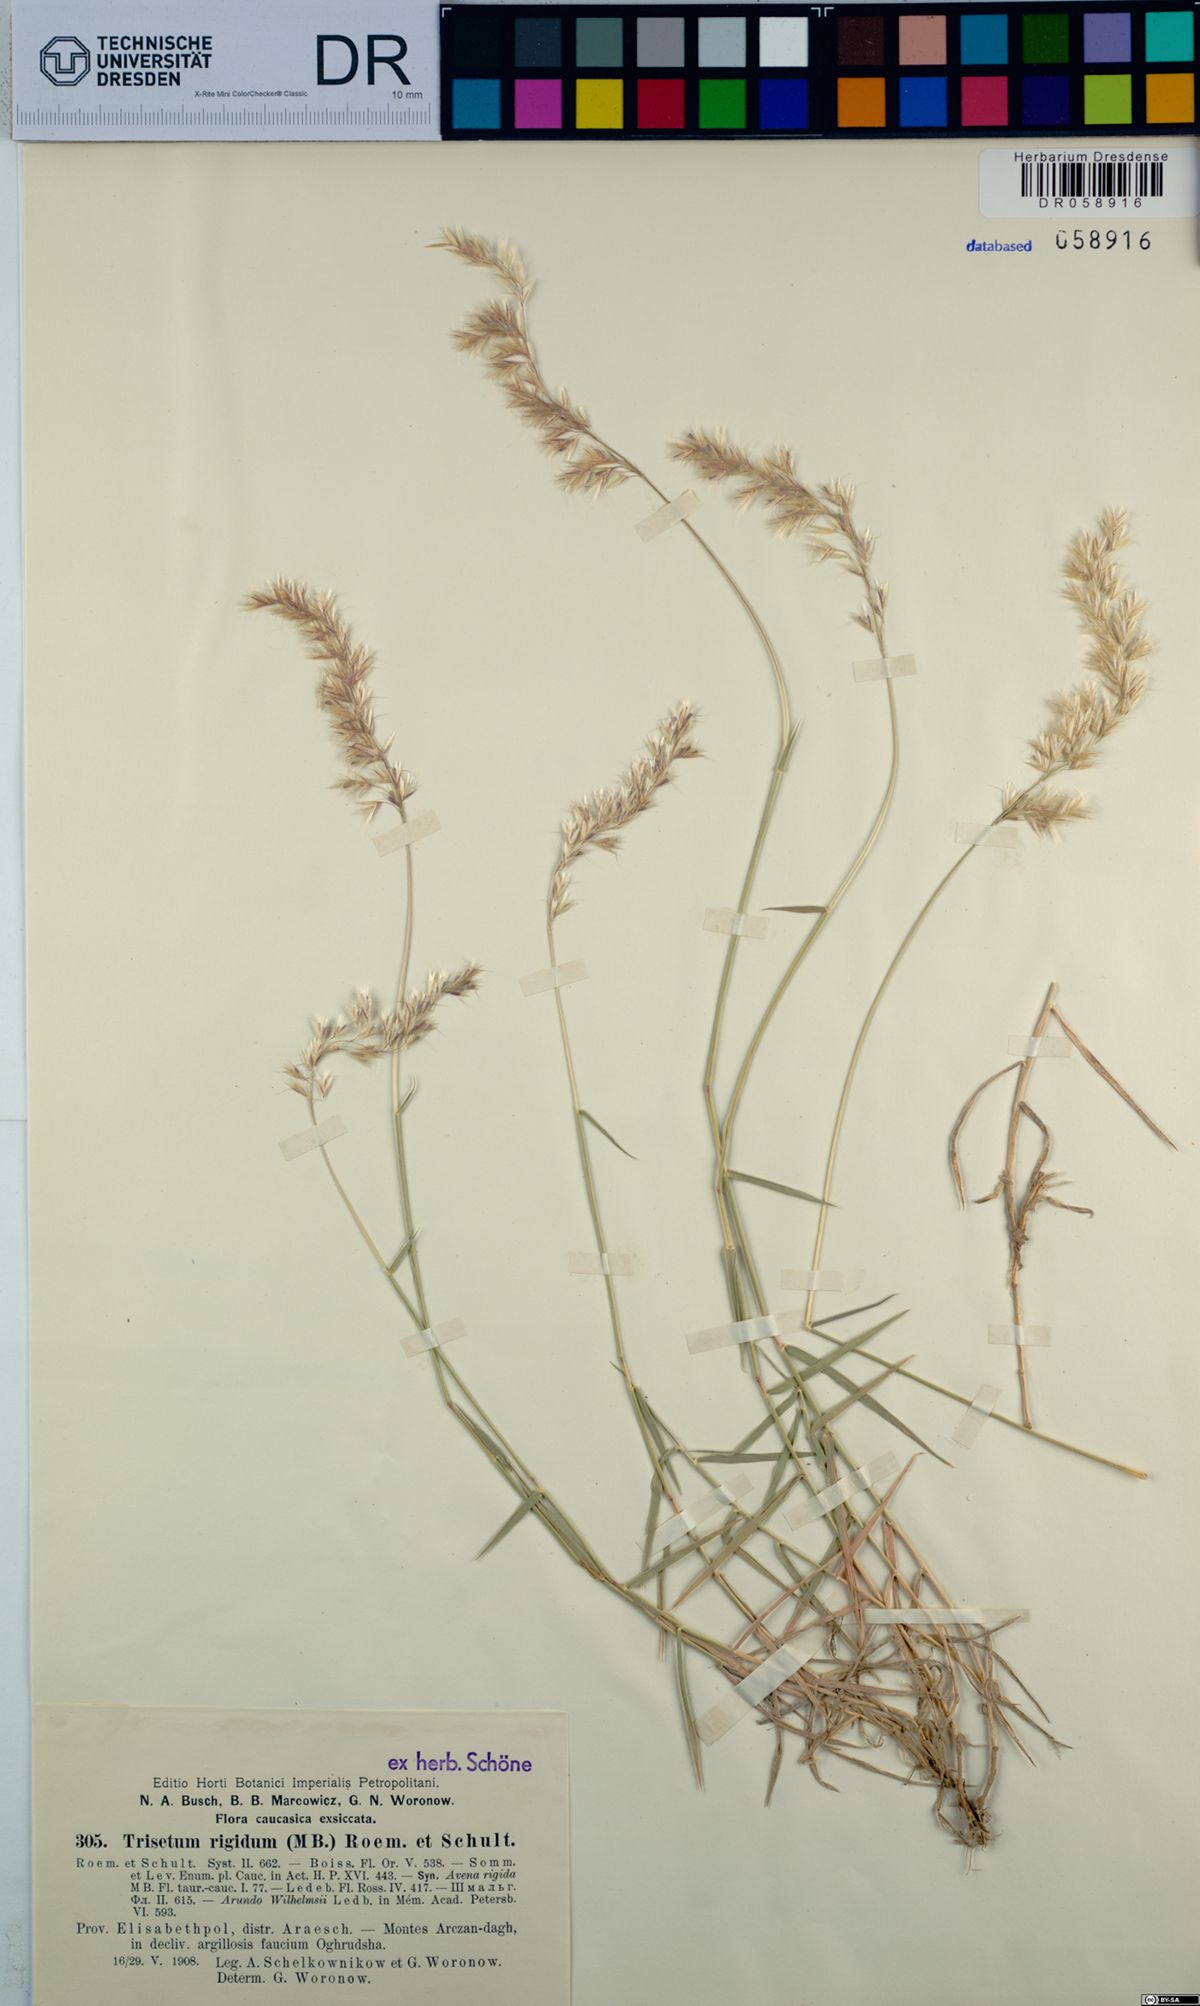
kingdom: Plantae
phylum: Tracheophyta
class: Liliopsida
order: Poales
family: Poaceae
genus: Trisetum
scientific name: Trisetum rigidum
